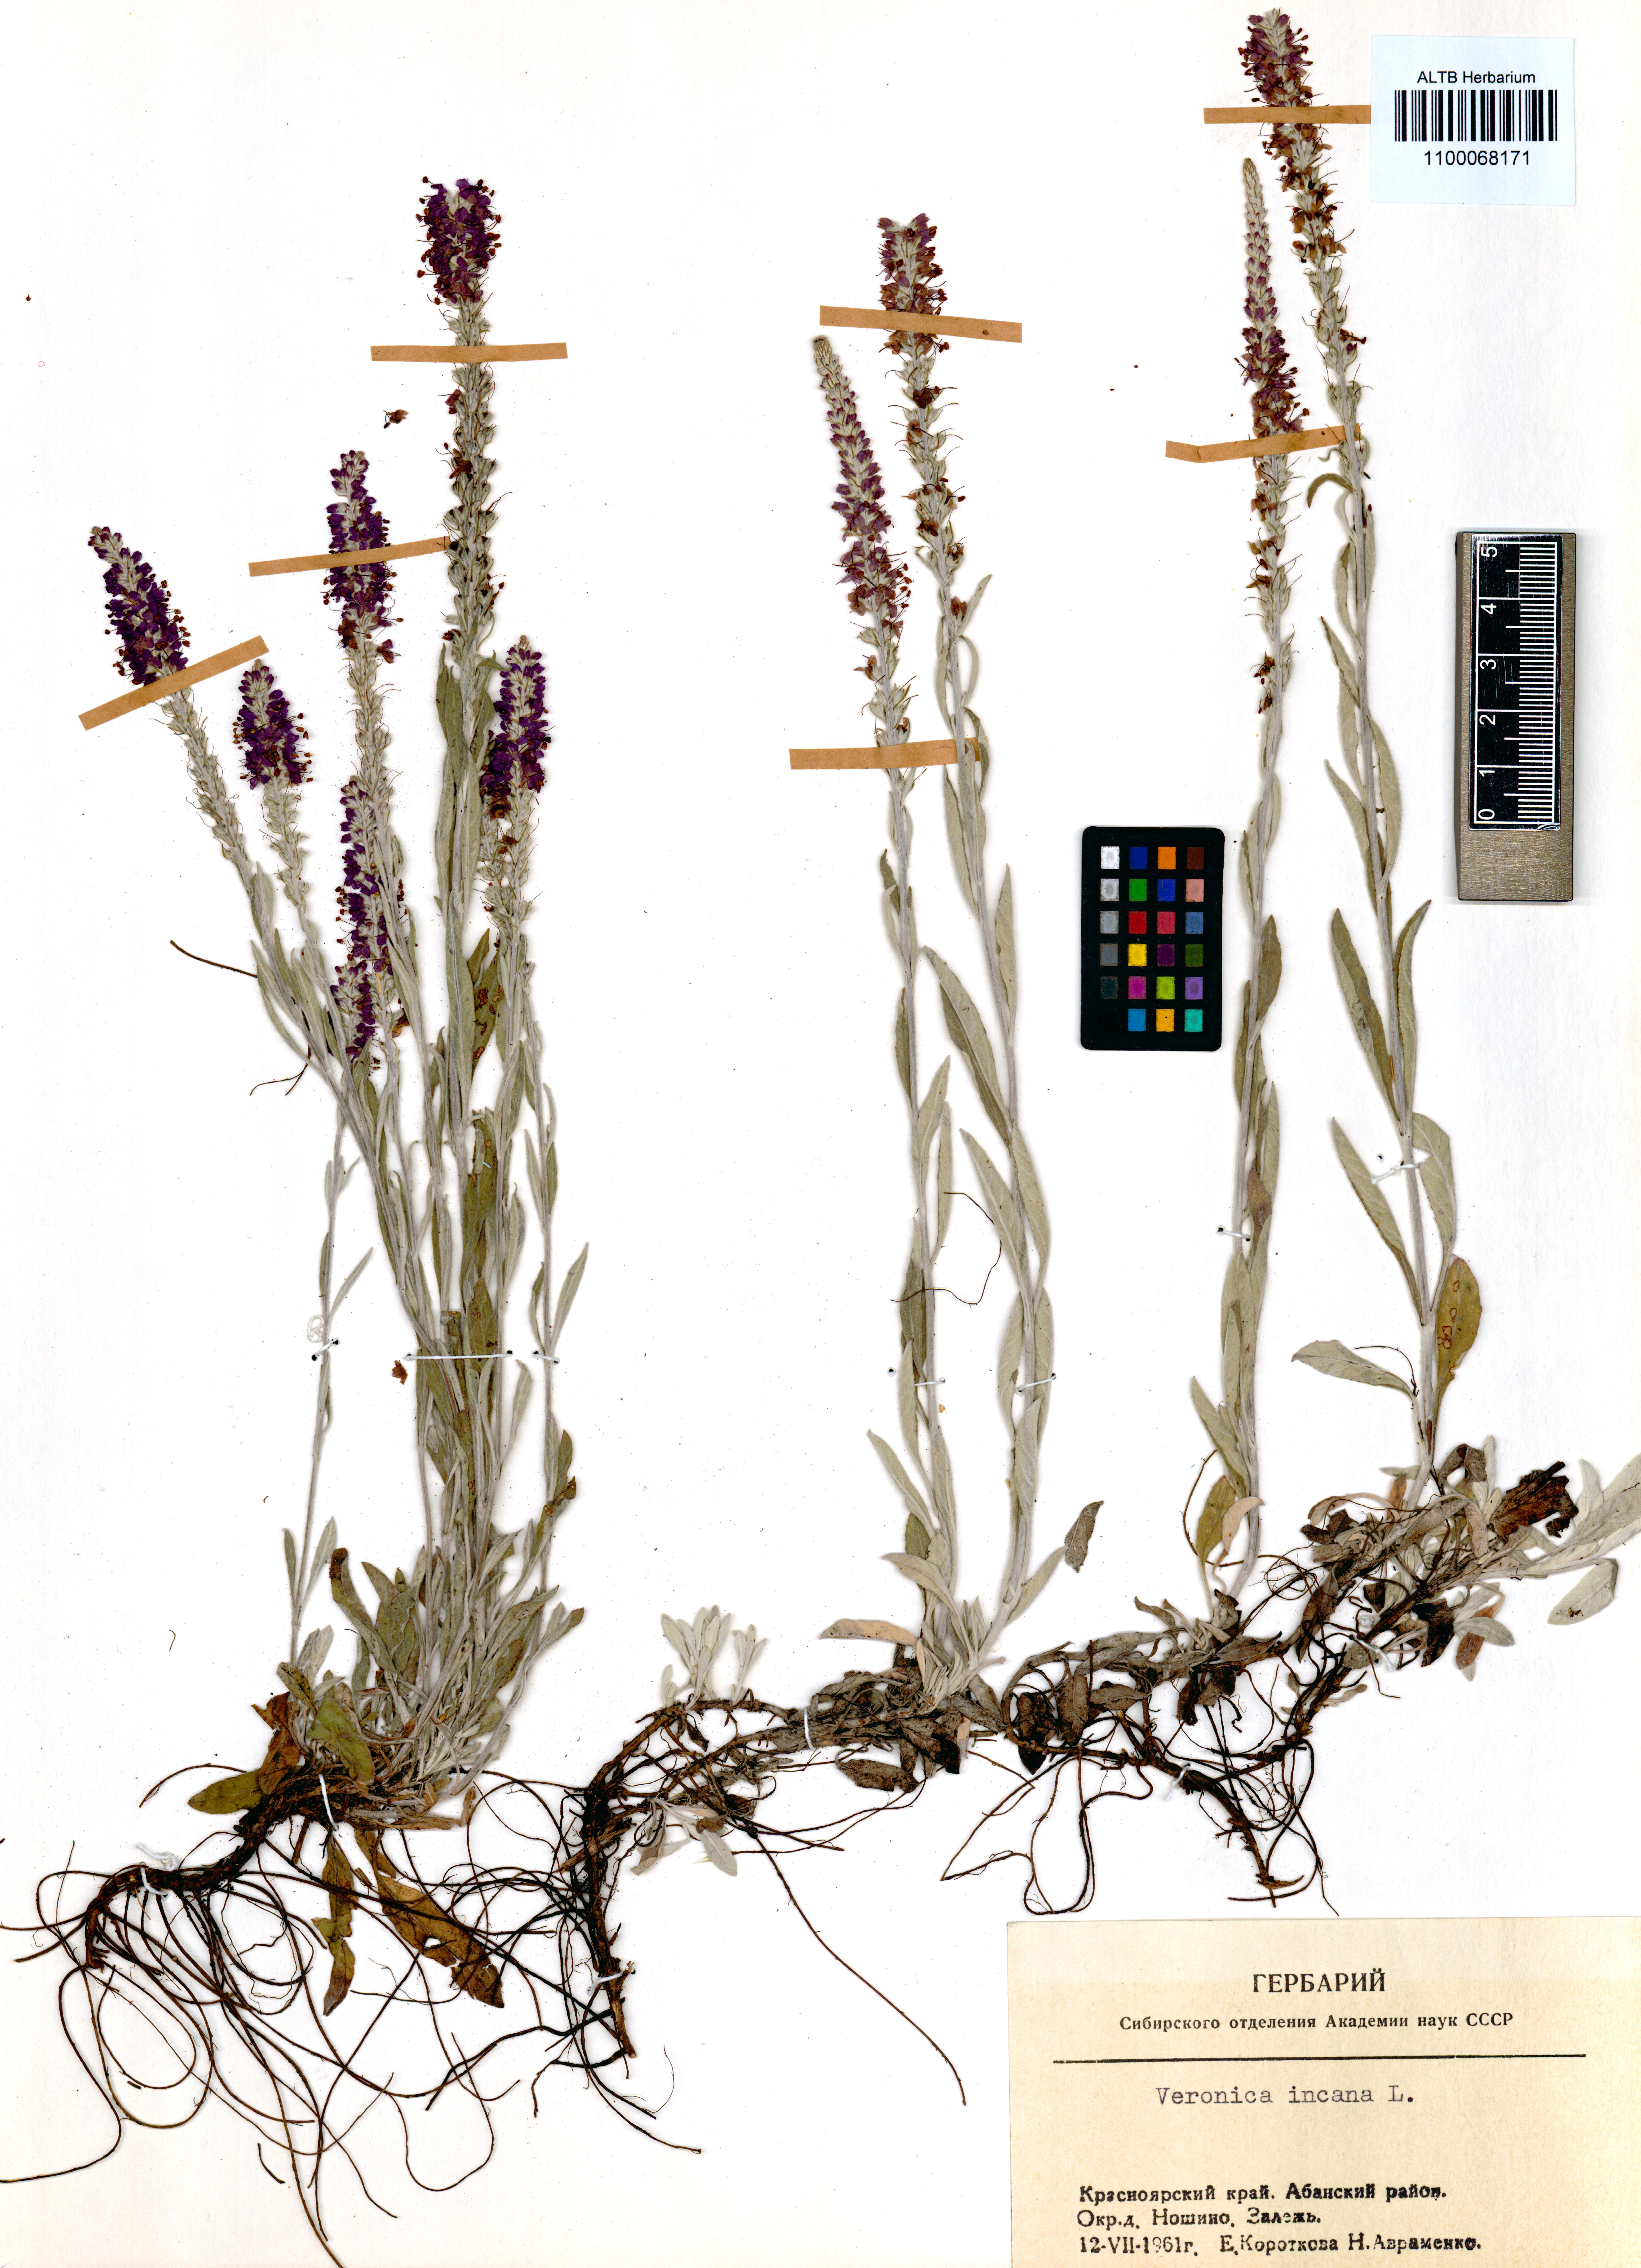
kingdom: Plantae
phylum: Tracheophyta
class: Magnoliopsida
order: Lamiales
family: Plantaginaceae
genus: Veronica
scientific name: Veronica incana
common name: Silver speedwell
